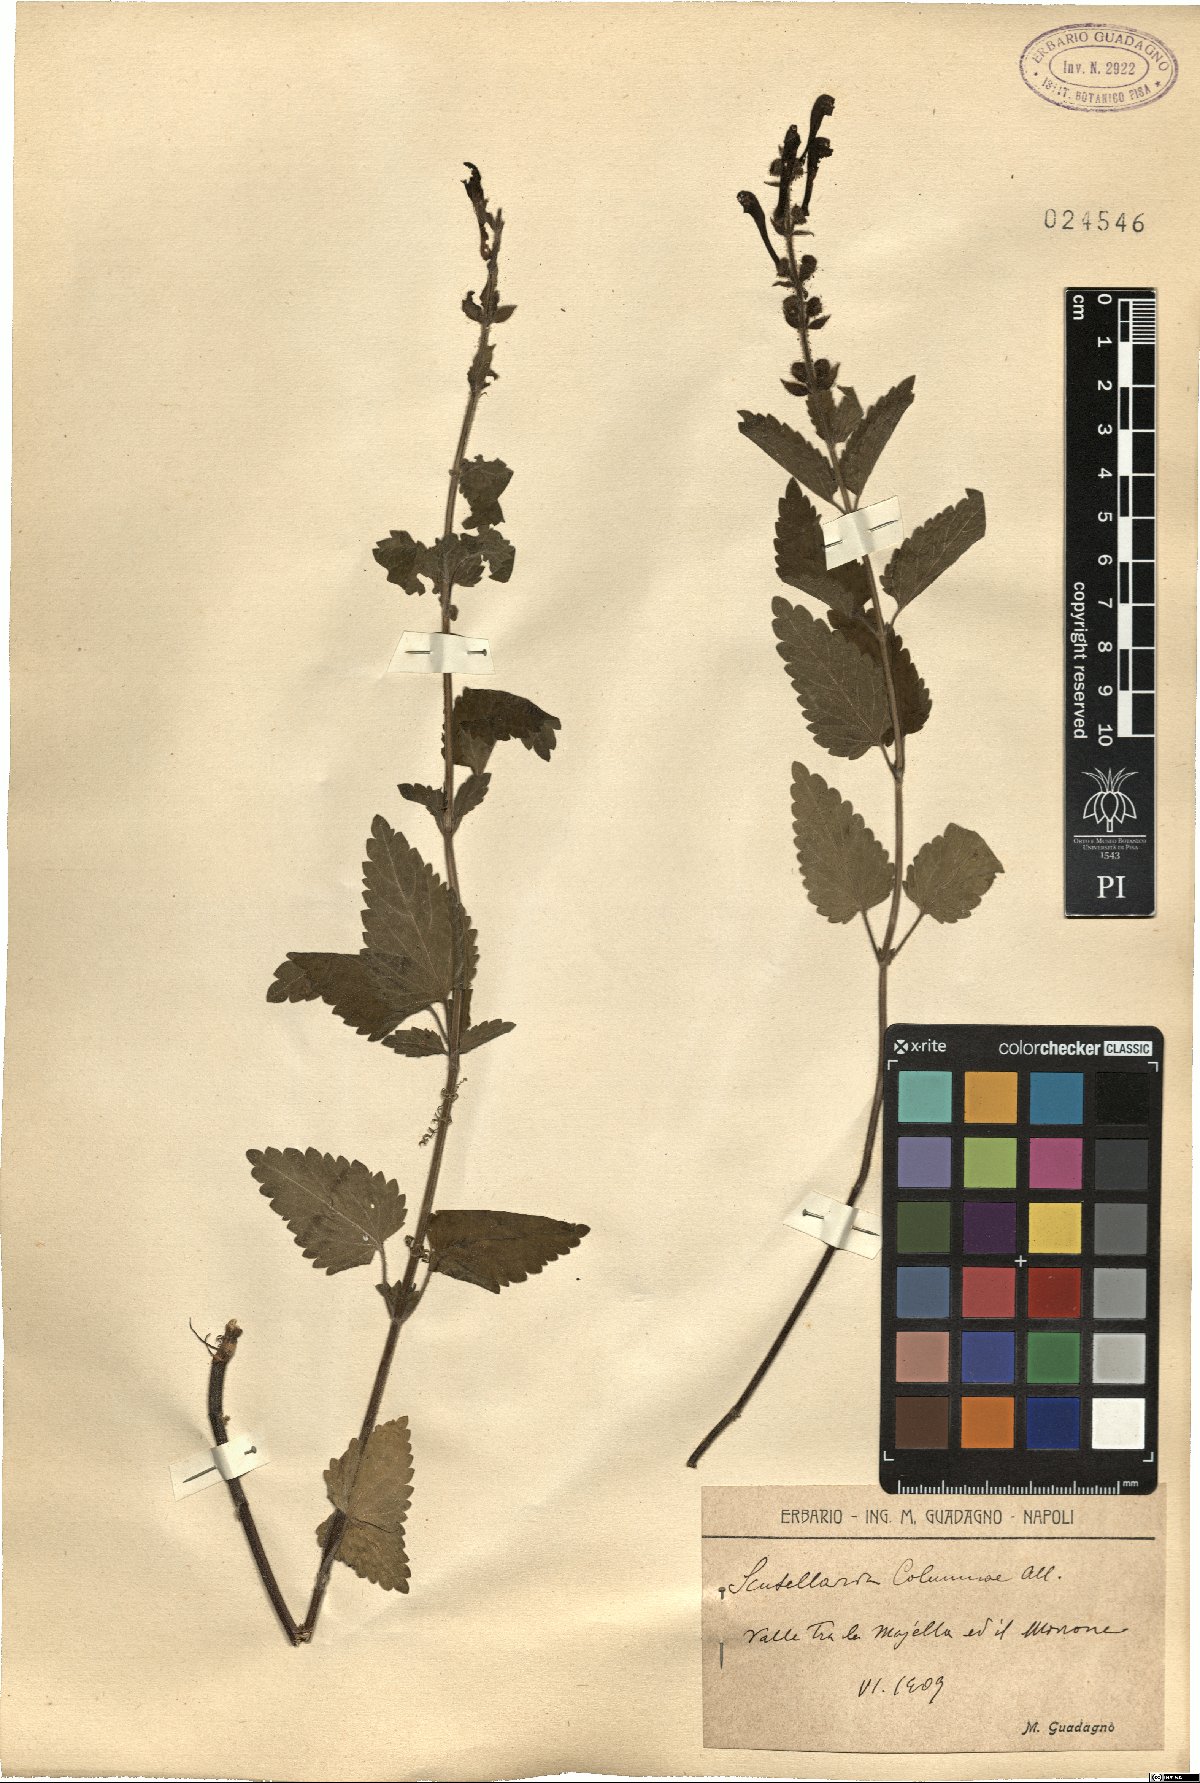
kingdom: Plantae
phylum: Tracheophyta
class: Magnoliopsida
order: Lamiales
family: Lamiaceae
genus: Scutellaria
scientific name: Scutellaria columnae
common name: Large skullcap
